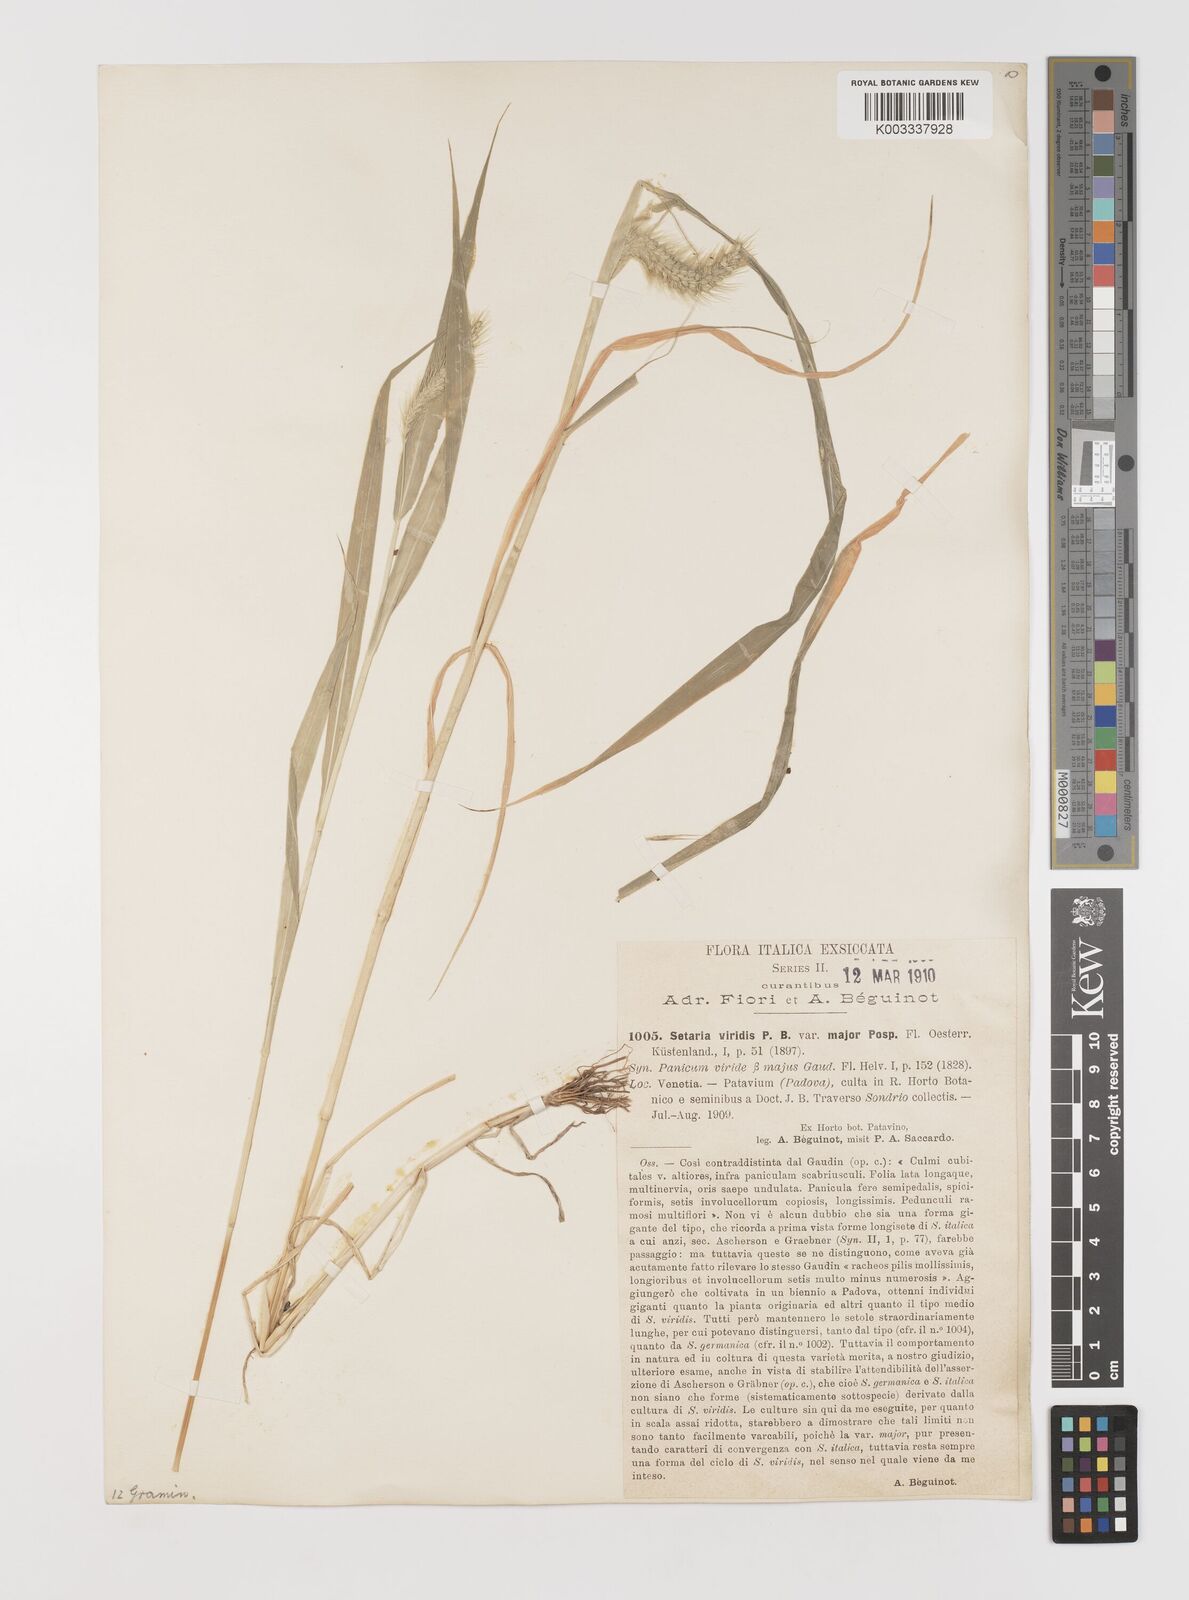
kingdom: Plantae
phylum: Tracheophyta
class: Liliopsida
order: Poales
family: Poaceae
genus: Setaria
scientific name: Setaria viridis
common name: Green bristlegrass
